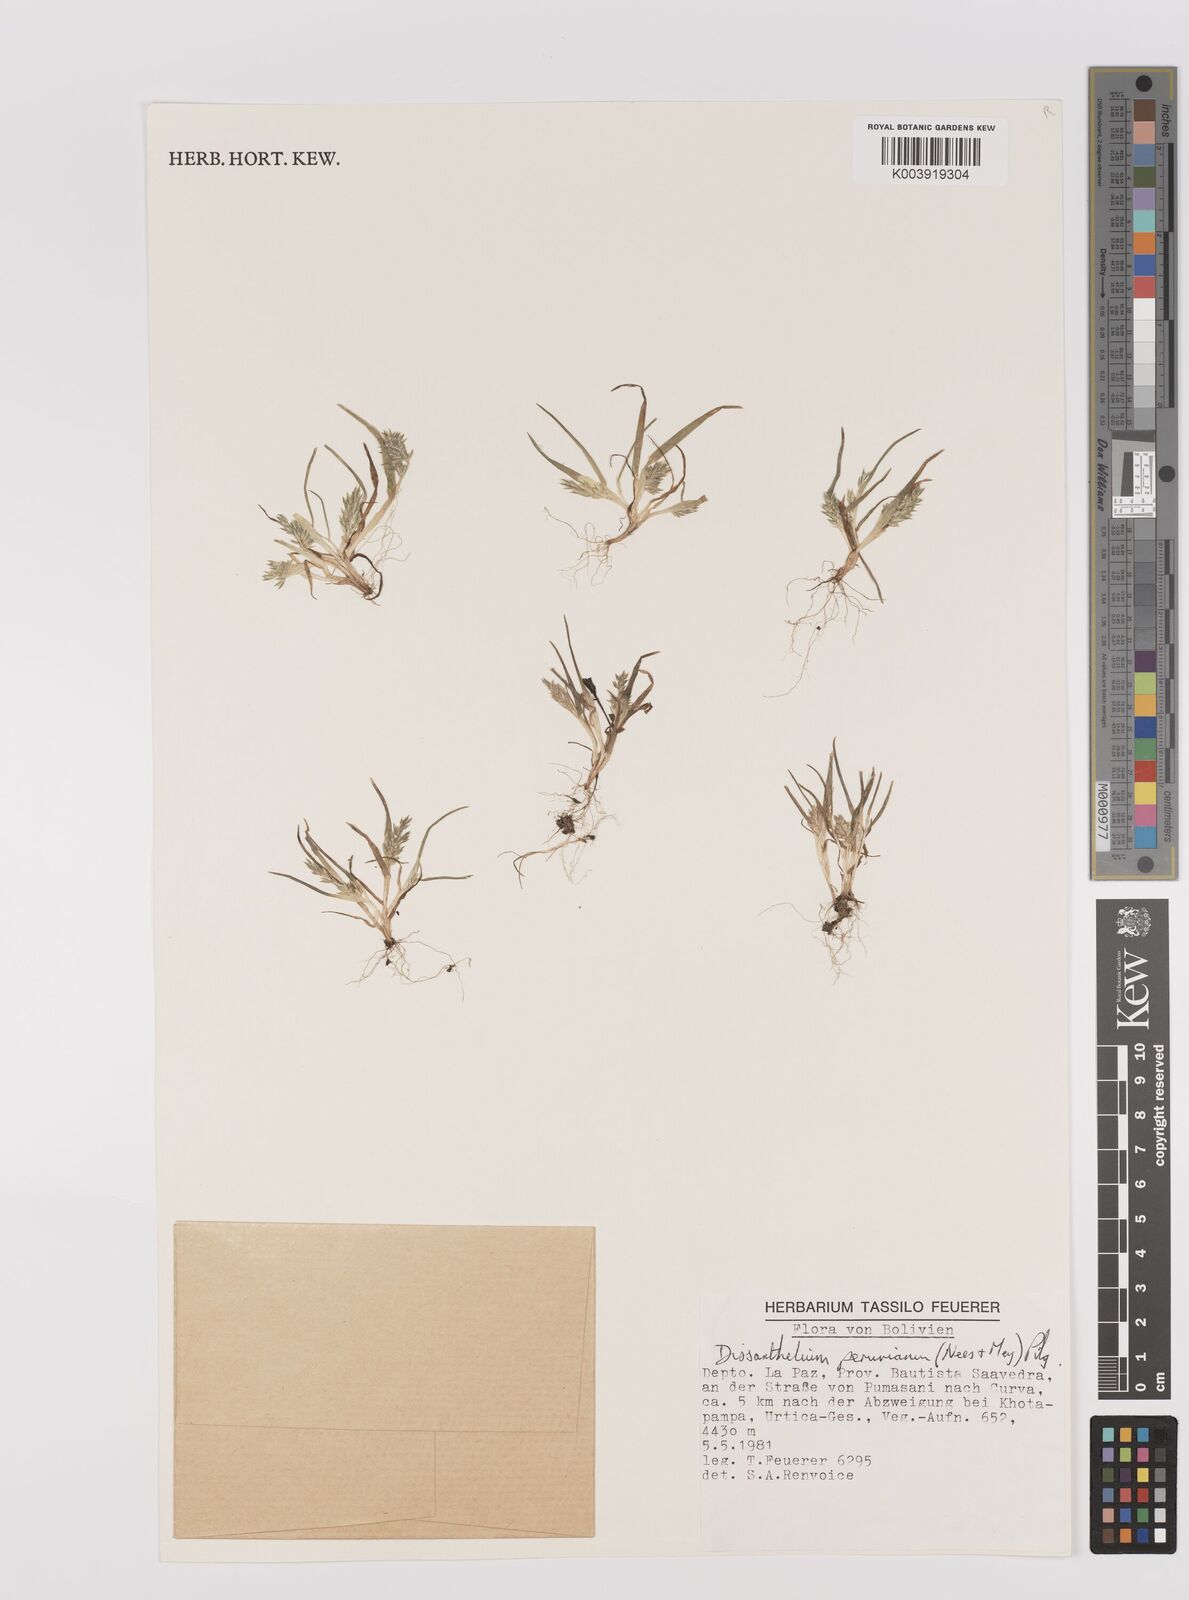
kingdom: Plantae
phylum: Tracheophyta
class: Liliopsida
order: Poales
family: Poaceae
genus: Poa
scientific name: Poa serpana
